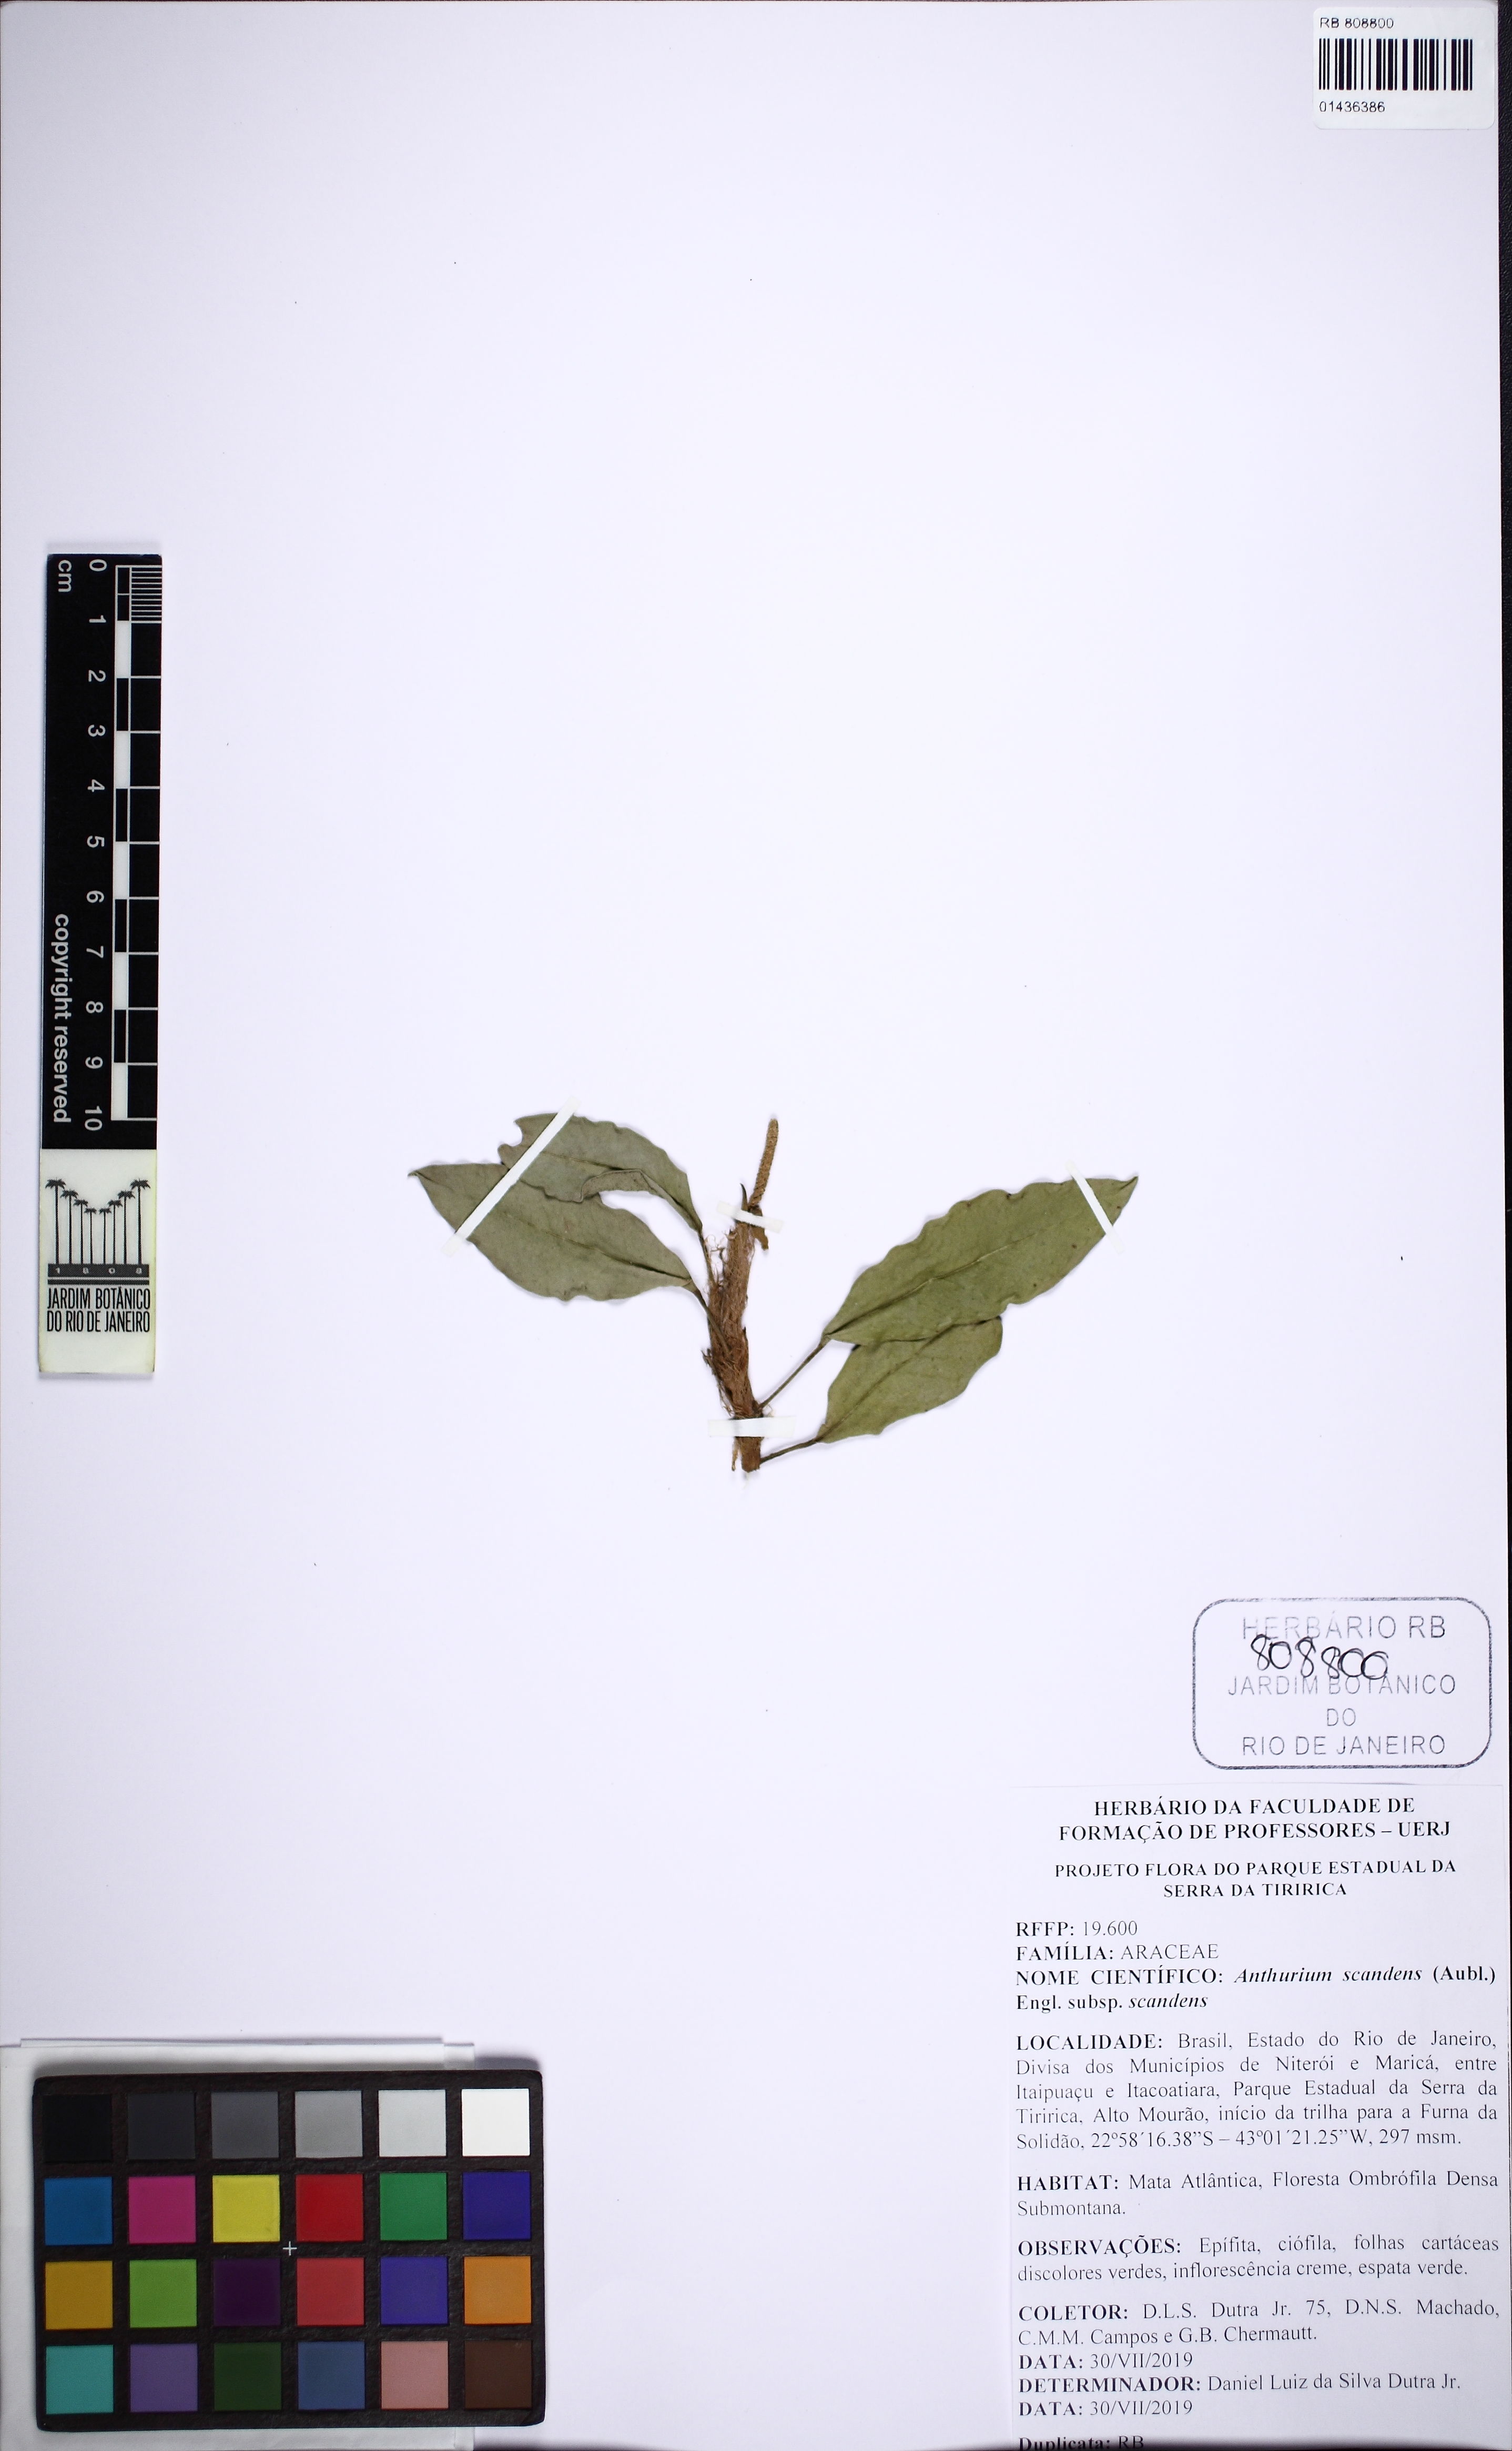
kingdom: Plantae
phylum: Tracheophyta
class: Liliopsida
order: Alismatales
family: Araceae
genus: Anthurium
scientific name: Anthurium scandens
